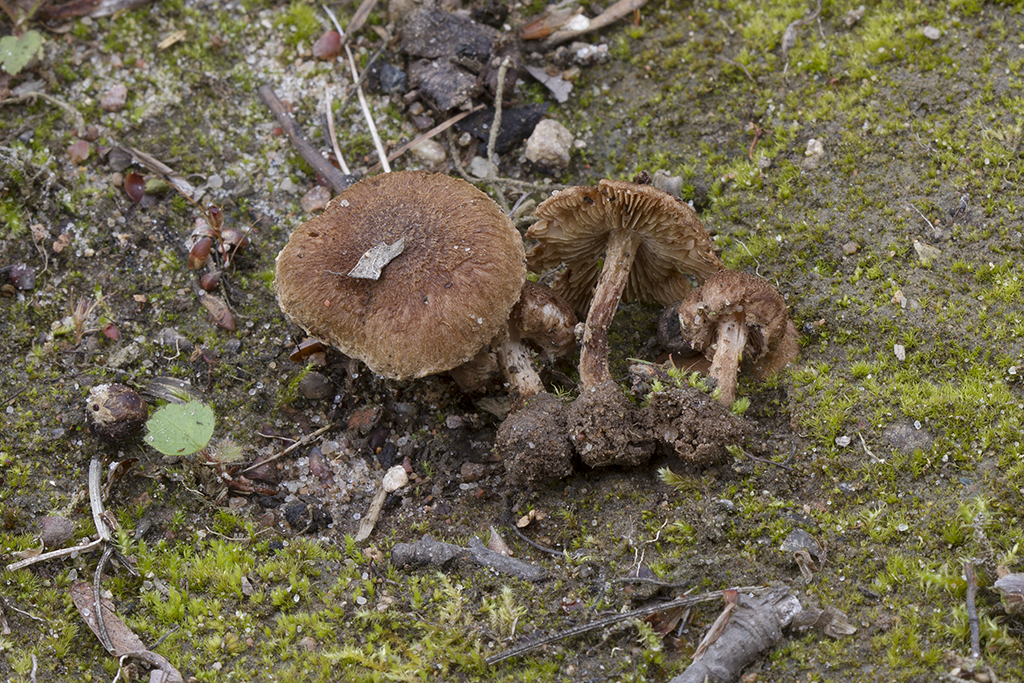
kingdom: Fungi
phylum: Basidiomycota
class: Agaricomycetes
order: Agaricales
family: Inocybaceae
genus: Inocybe
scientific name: Inocybe lacera
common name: laset trævlhat
